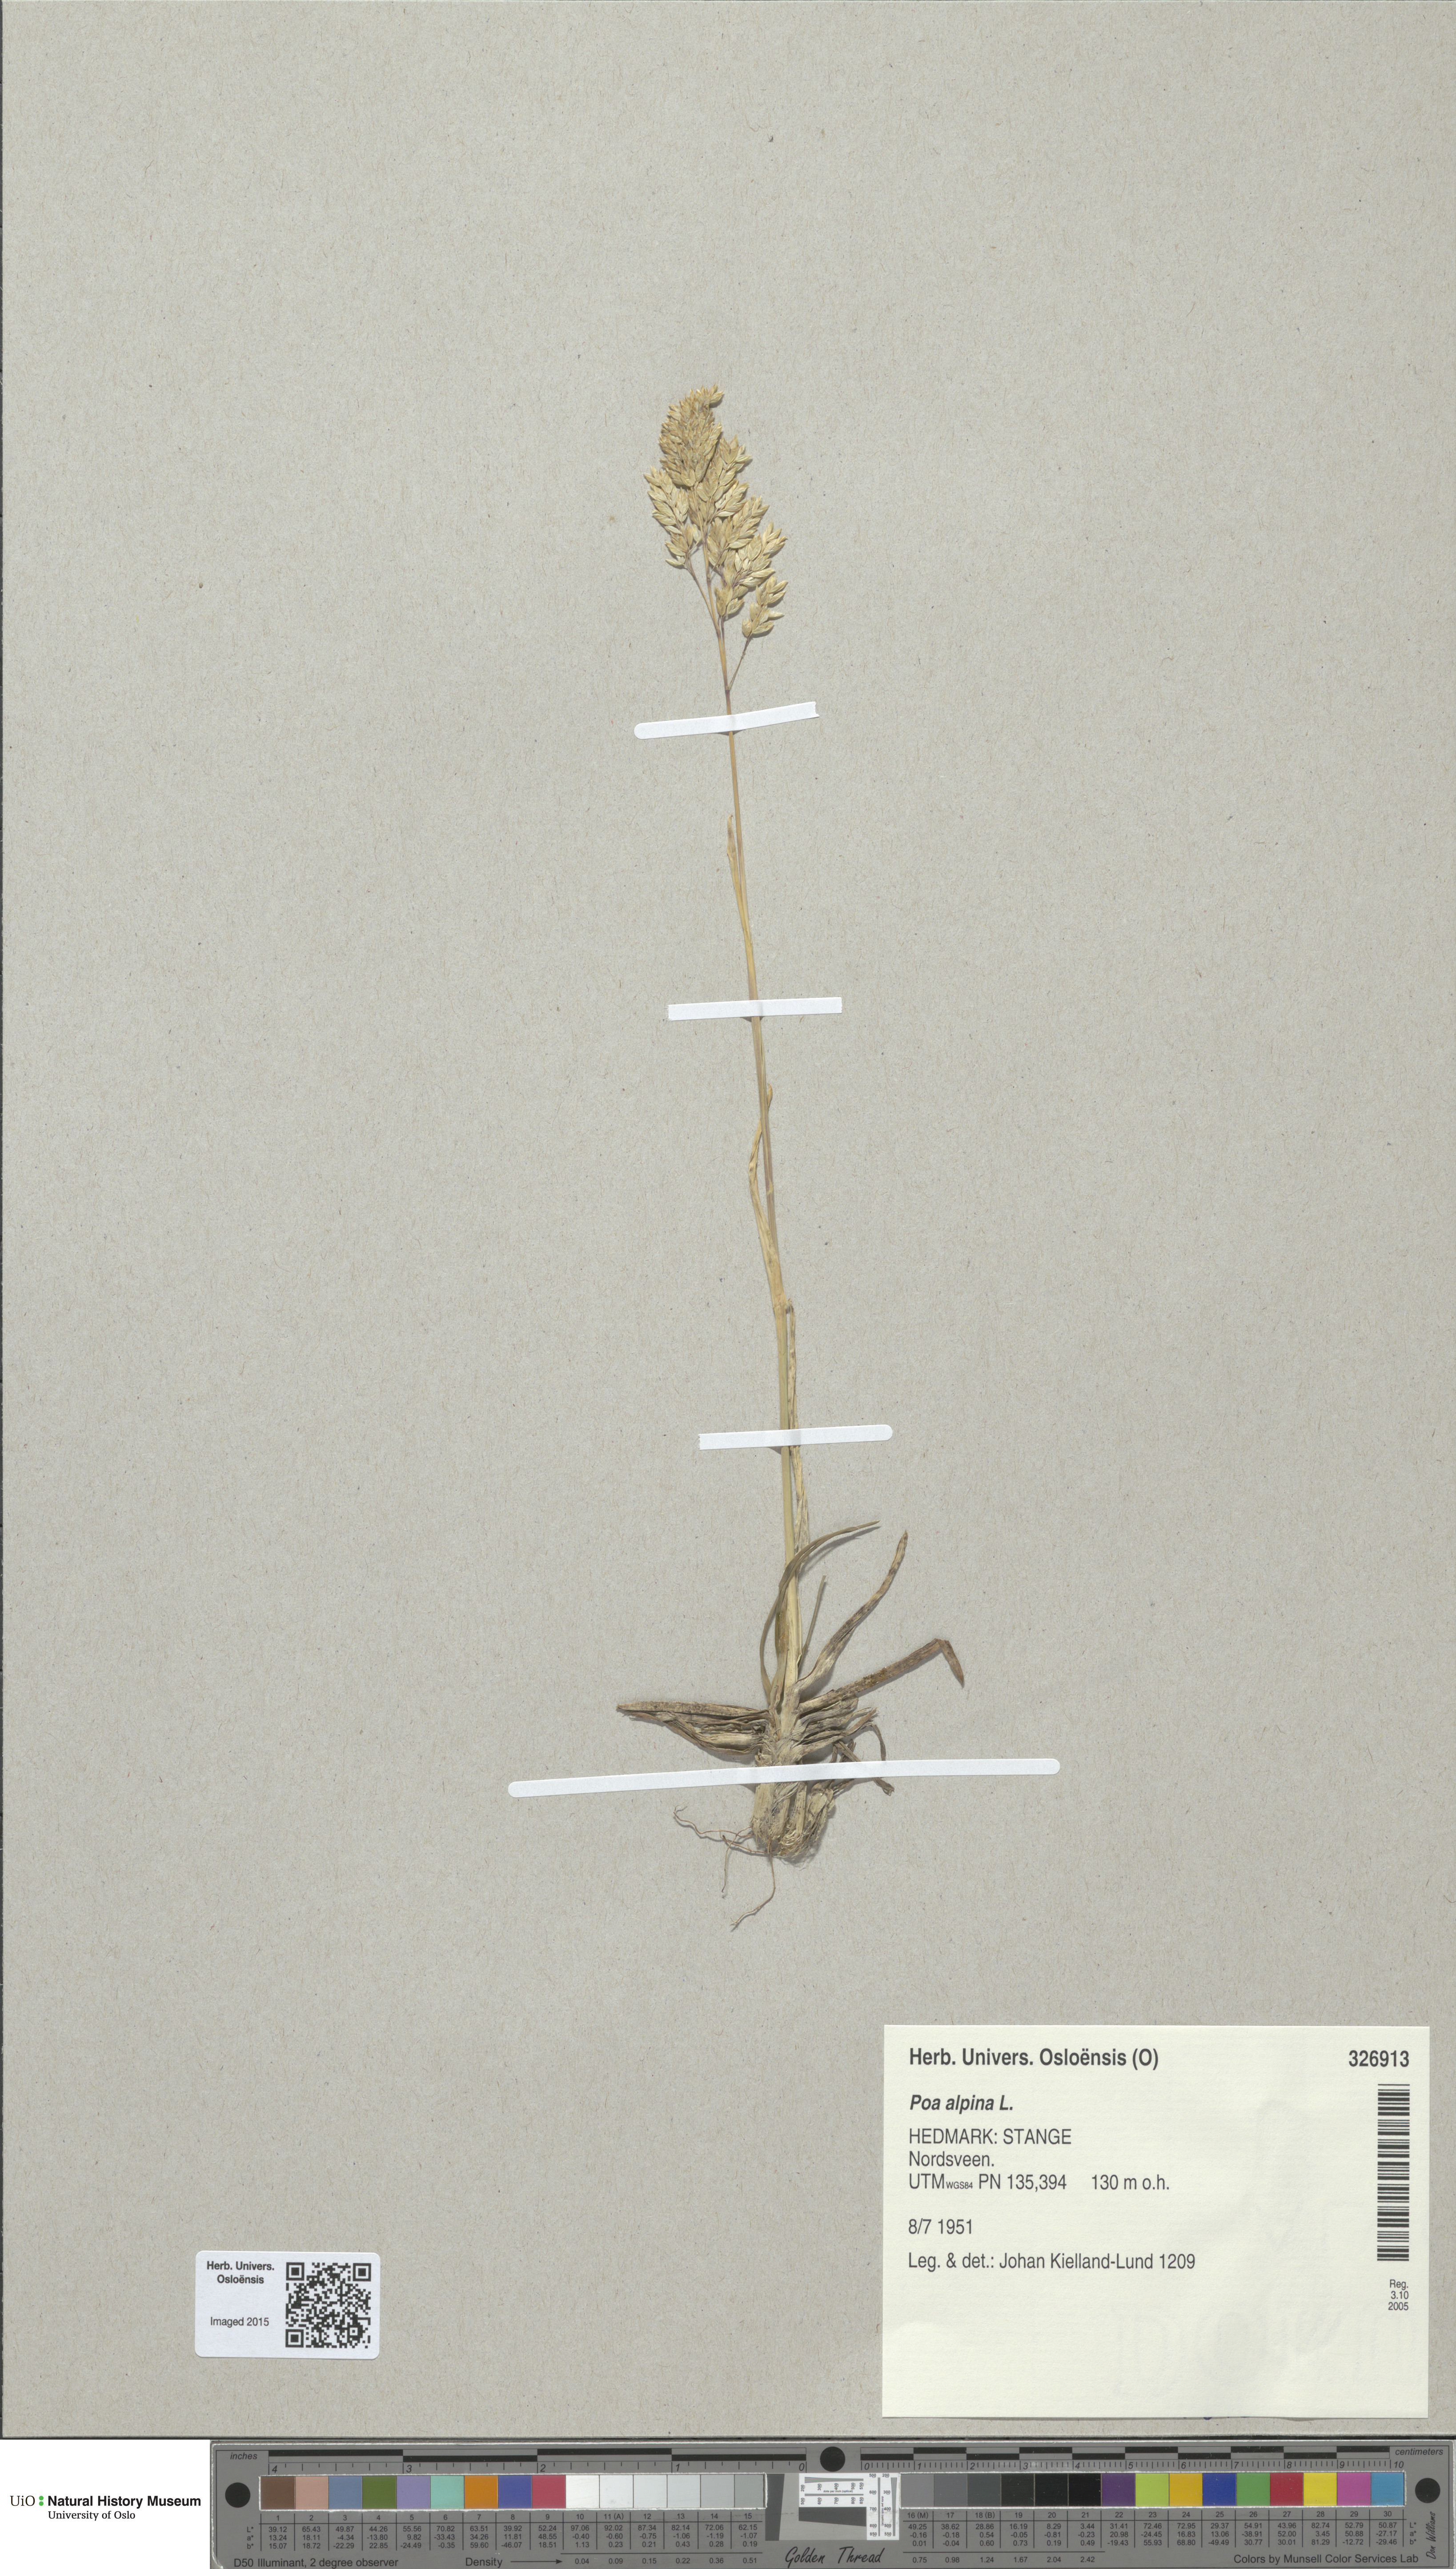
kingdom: Plantae
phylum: Tracheophyta
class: Liliopsida
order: Poales
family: Poaceae
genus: Poa
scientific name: Poa alpina
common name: Alpine bluegrass
